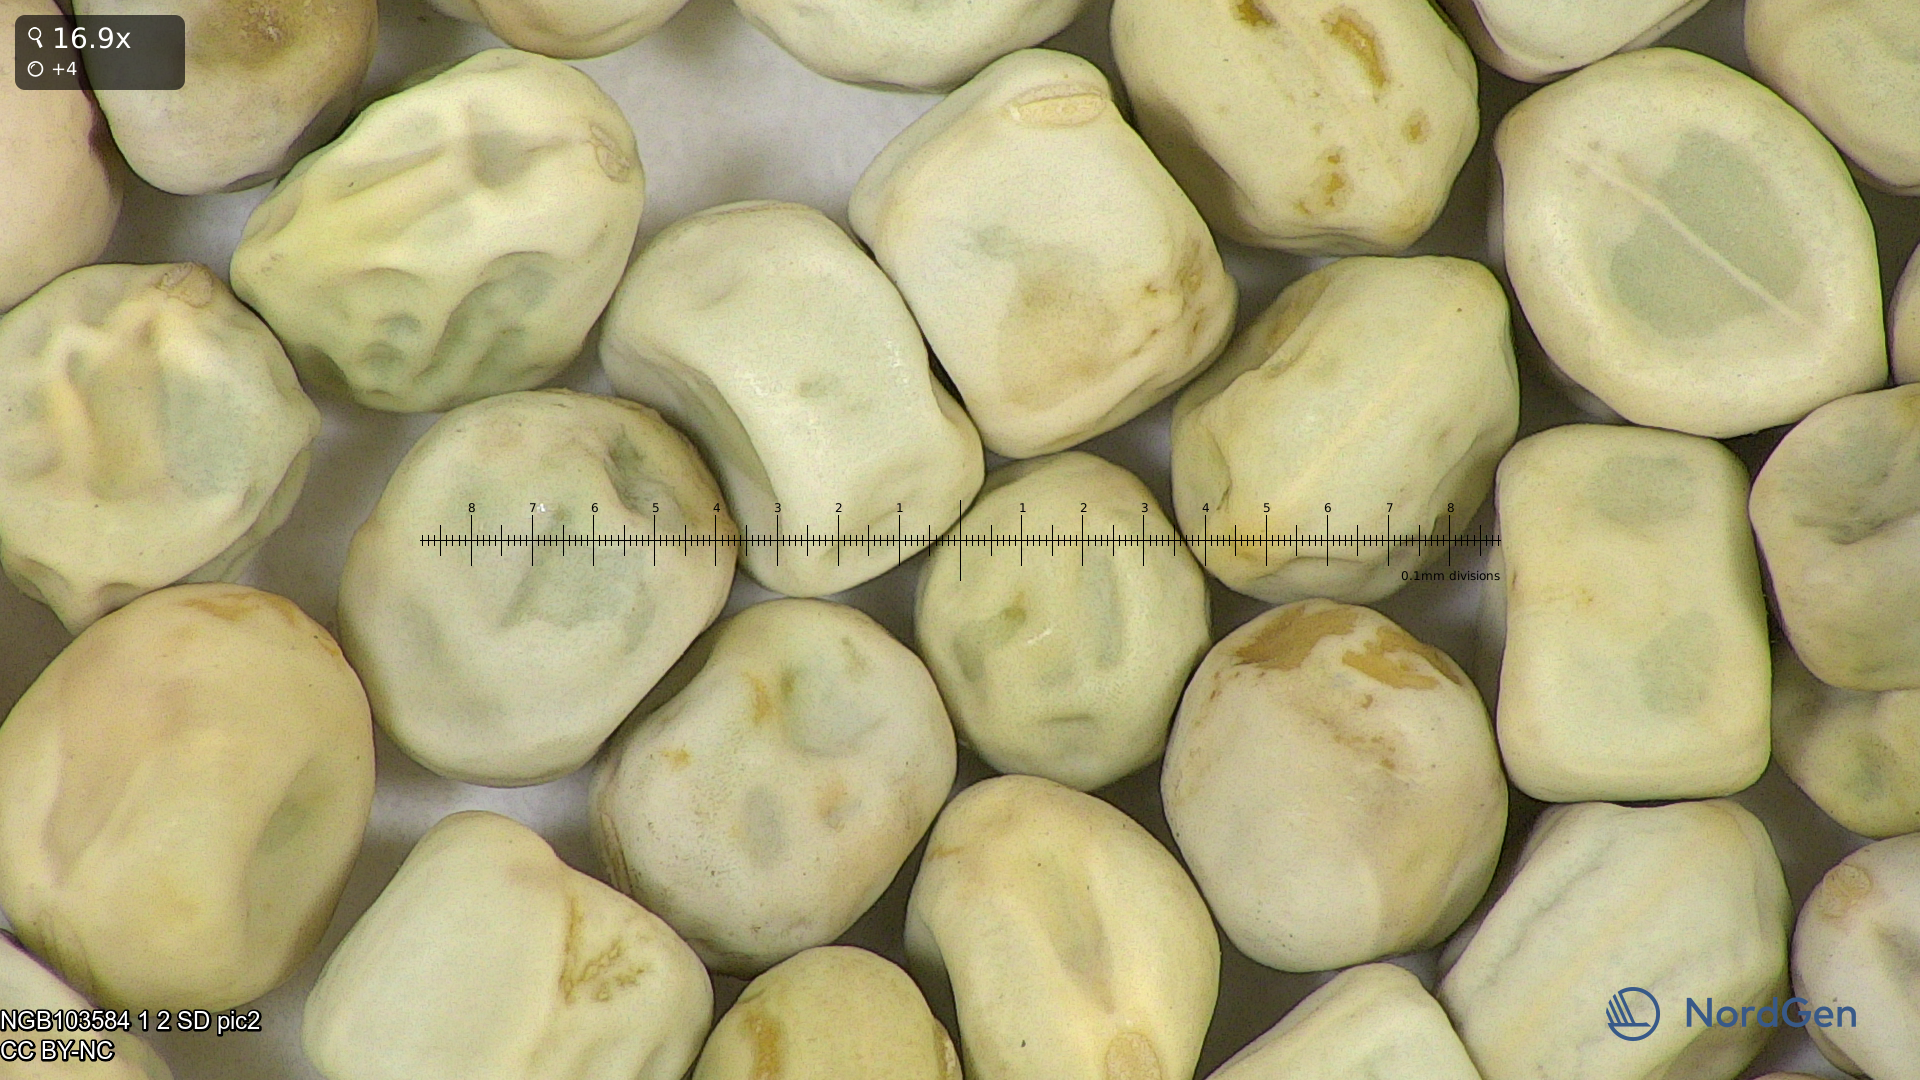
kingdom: Plantae
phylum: Tracheophyta
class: Magnoliopsida
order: Fabales
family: Fabaceae
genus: Lathyrus
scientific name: Lathyrus oleraceus
